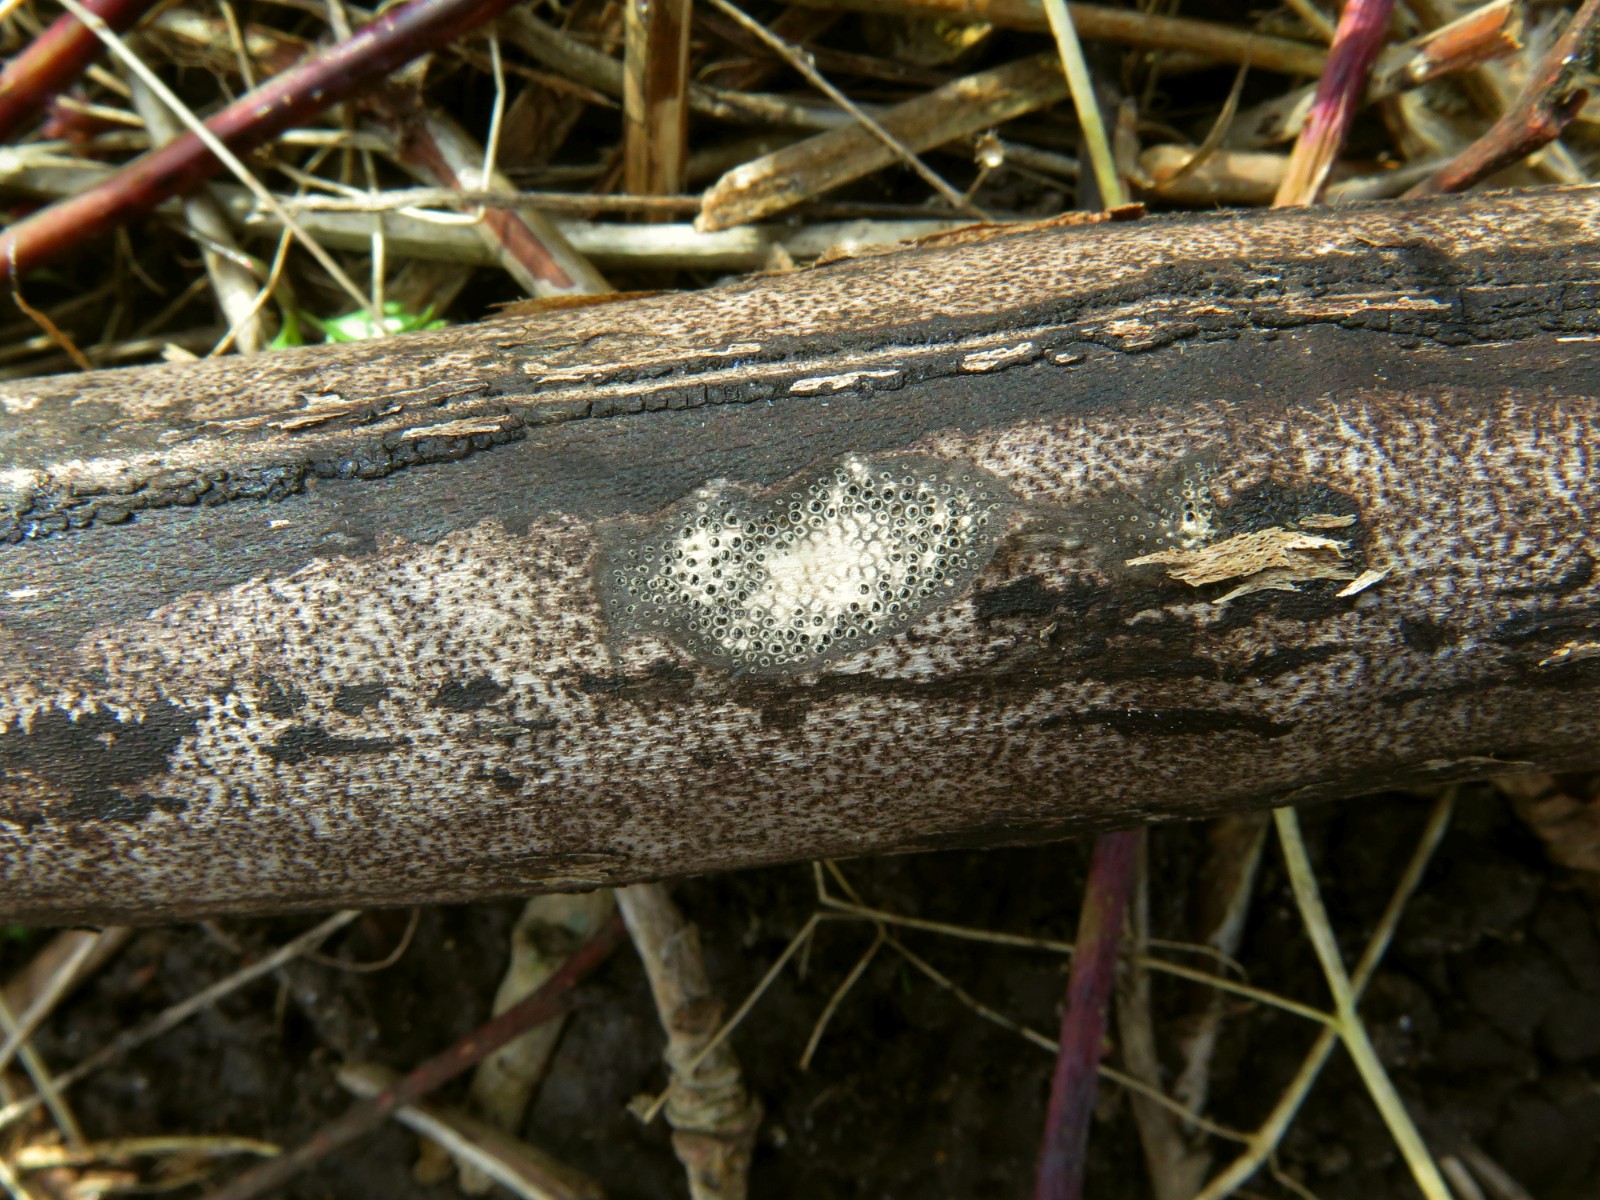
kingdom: Fungi
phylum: Ascomycota
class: Sordariomycetes
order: Xylariales
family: Diatrypaceae
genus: Eutypa
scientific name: Eutypa maura
